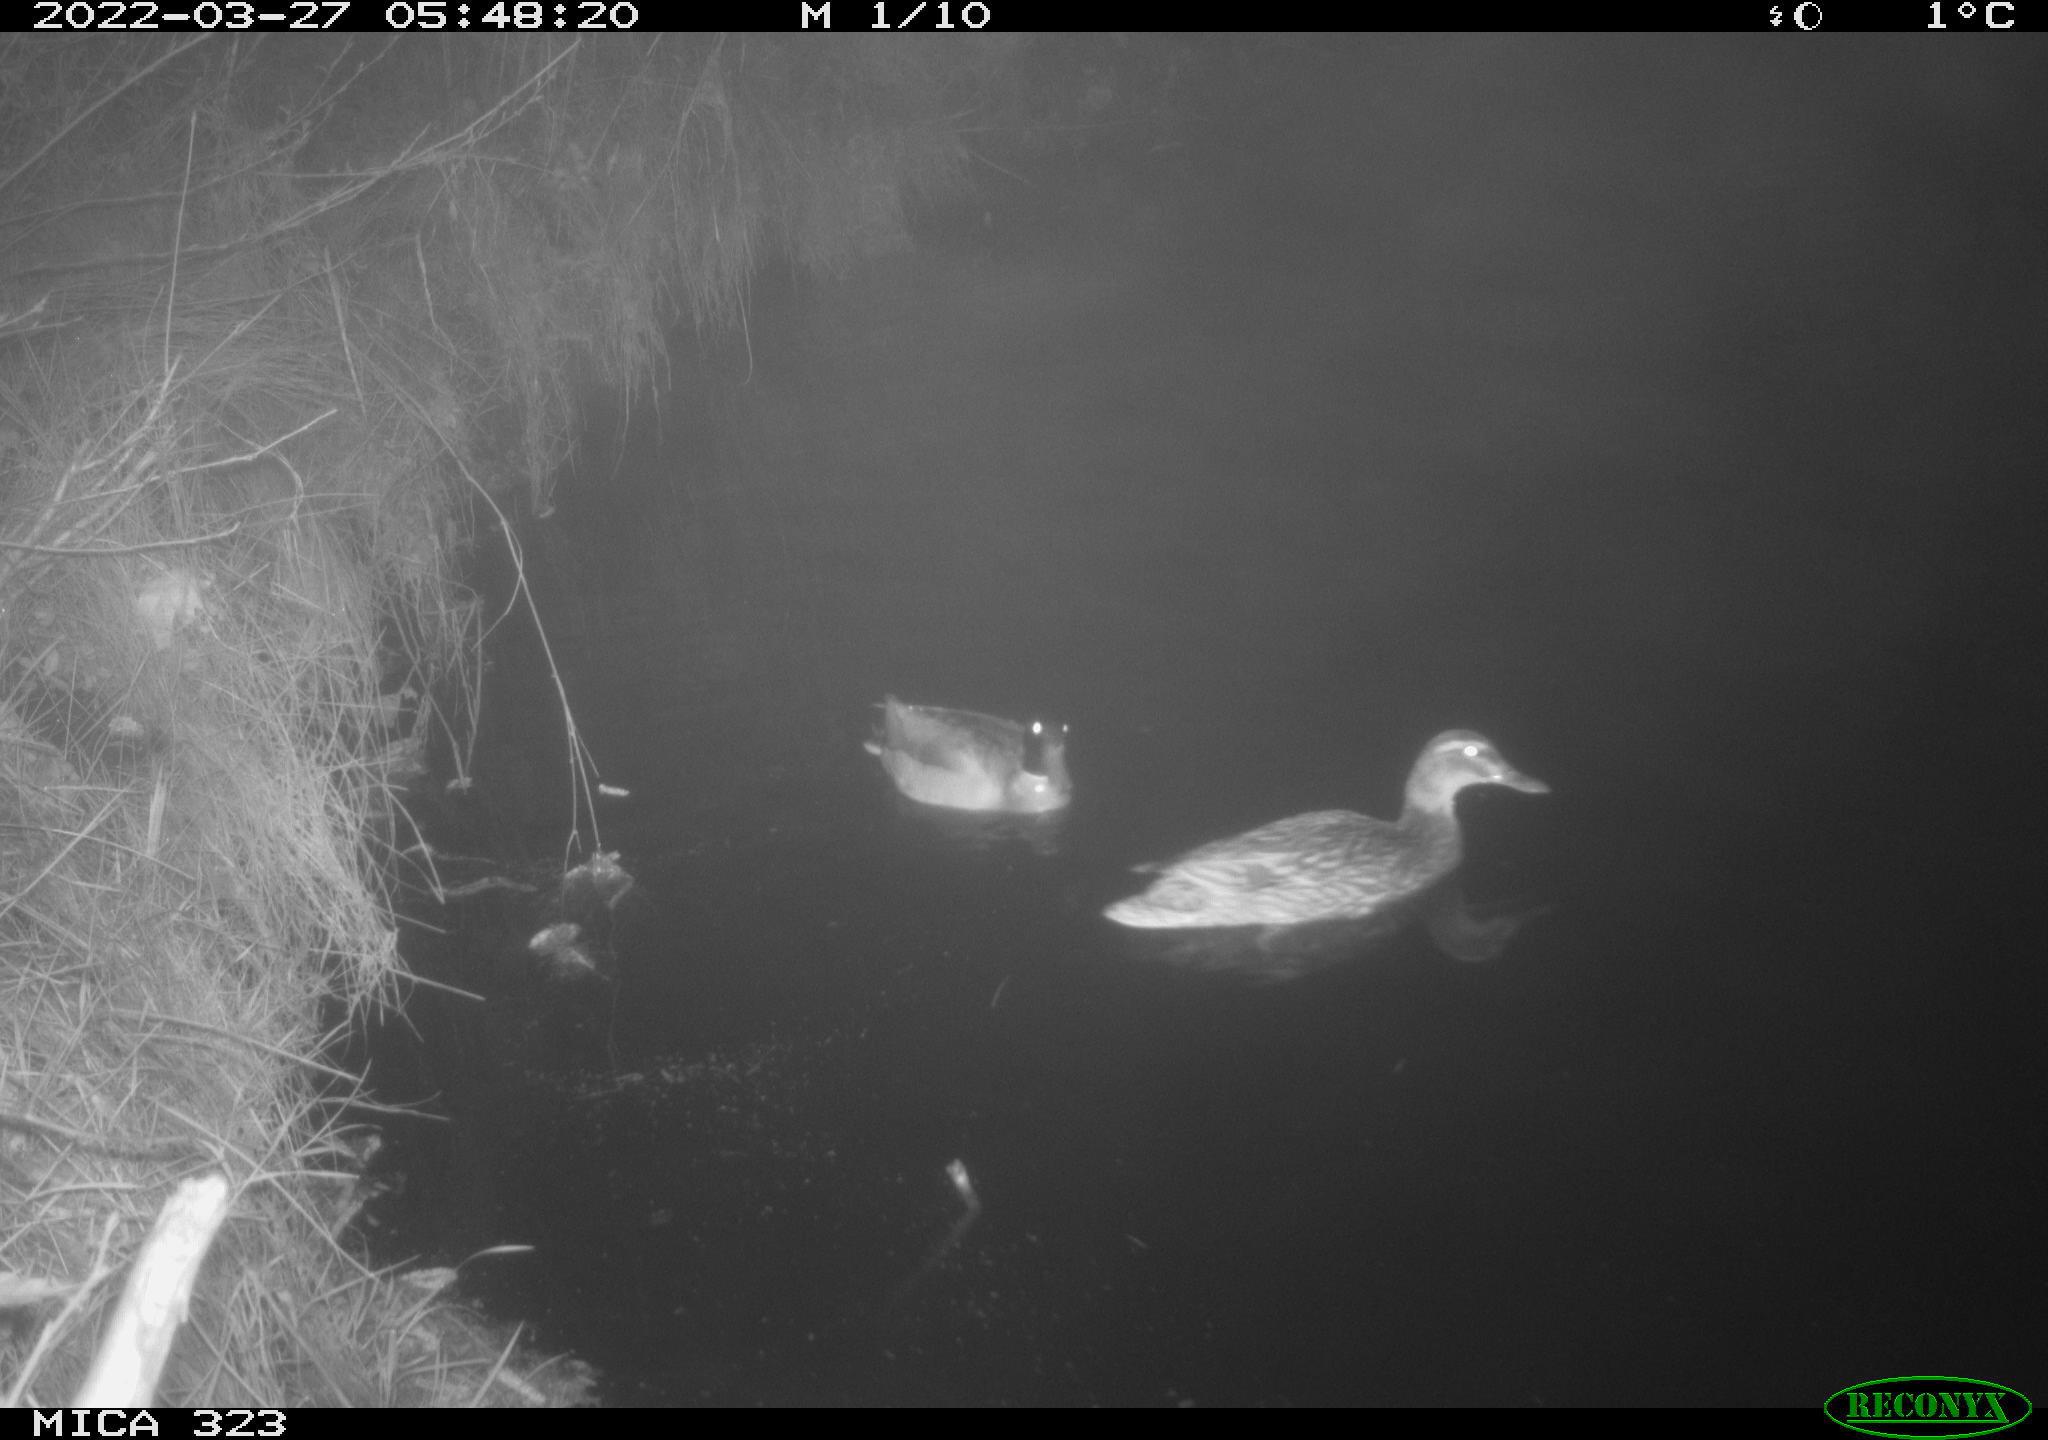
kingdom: Animalia
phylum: Chordata
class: Aves
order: Anseriformes
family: Anatidae
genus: Anas
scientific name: Anas platyrhynchos
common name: Mallard
